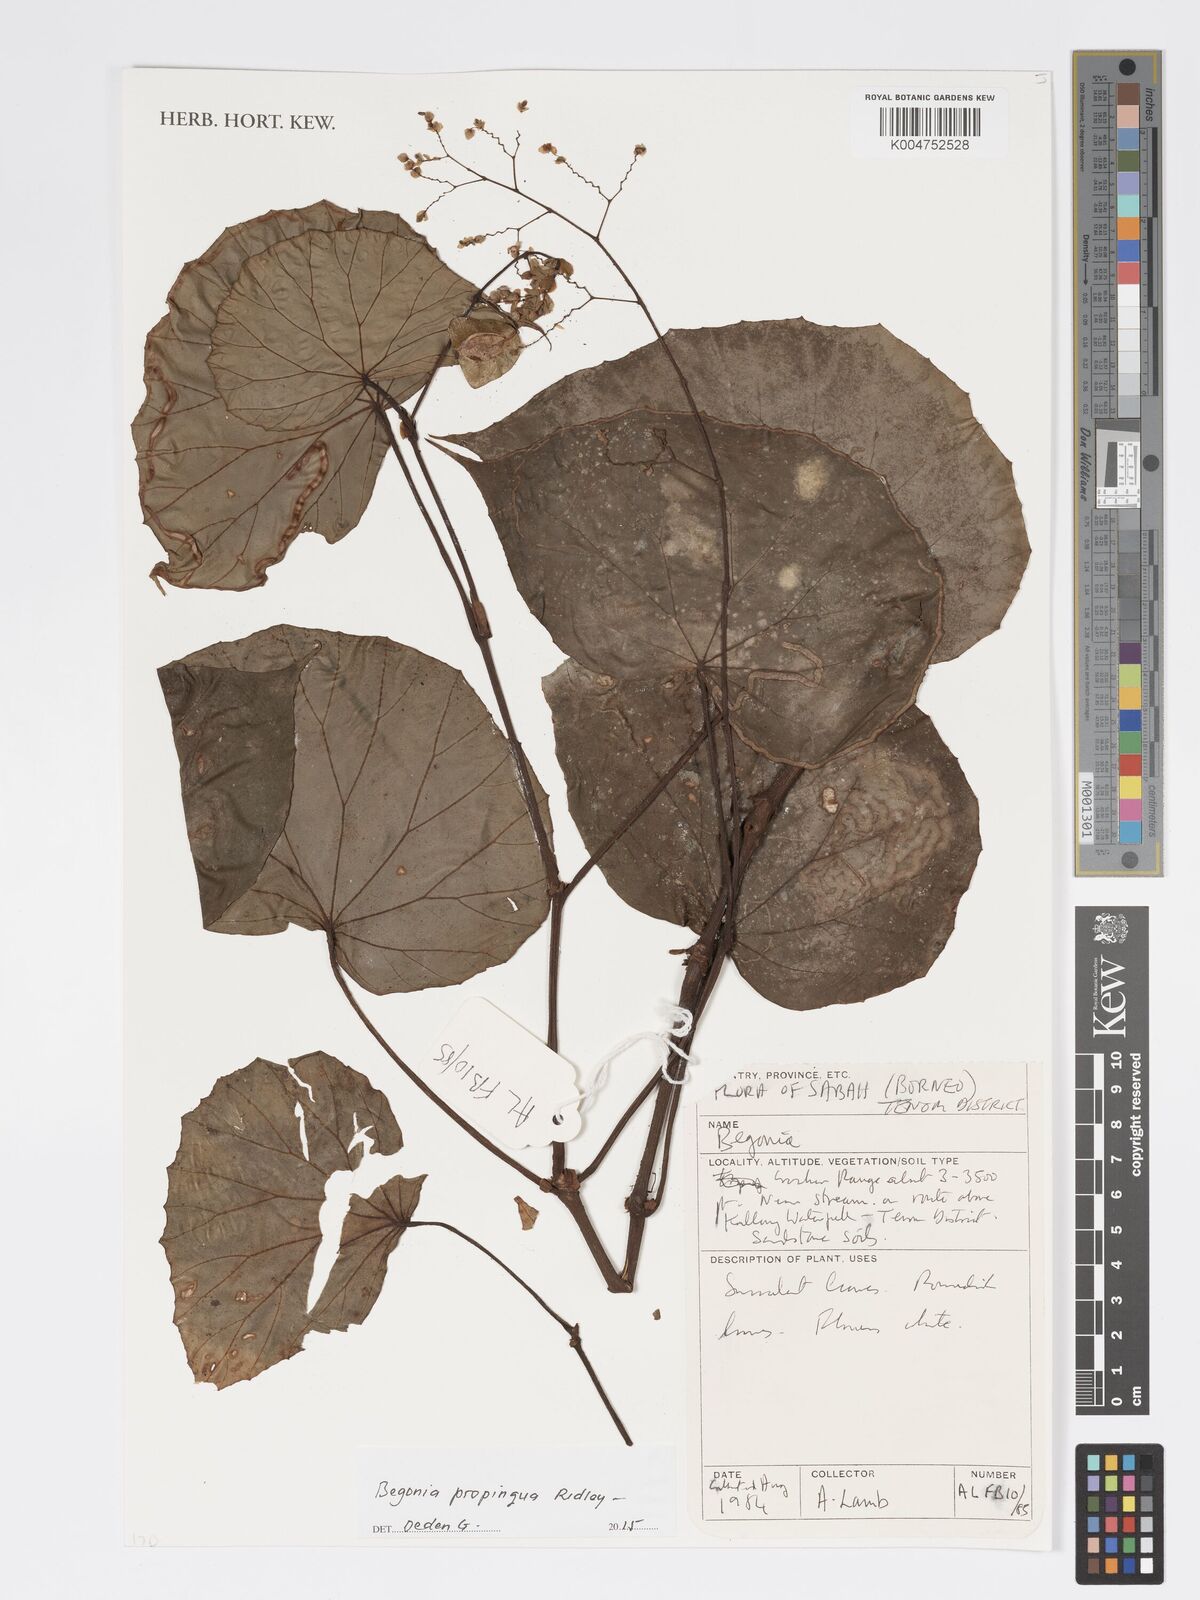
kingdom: Plantae
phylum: Tracheophyta
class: Magnoliopsida
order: Cucurbitales
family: Begoniaceae
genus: Begonia
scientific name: Begonia propinqua
